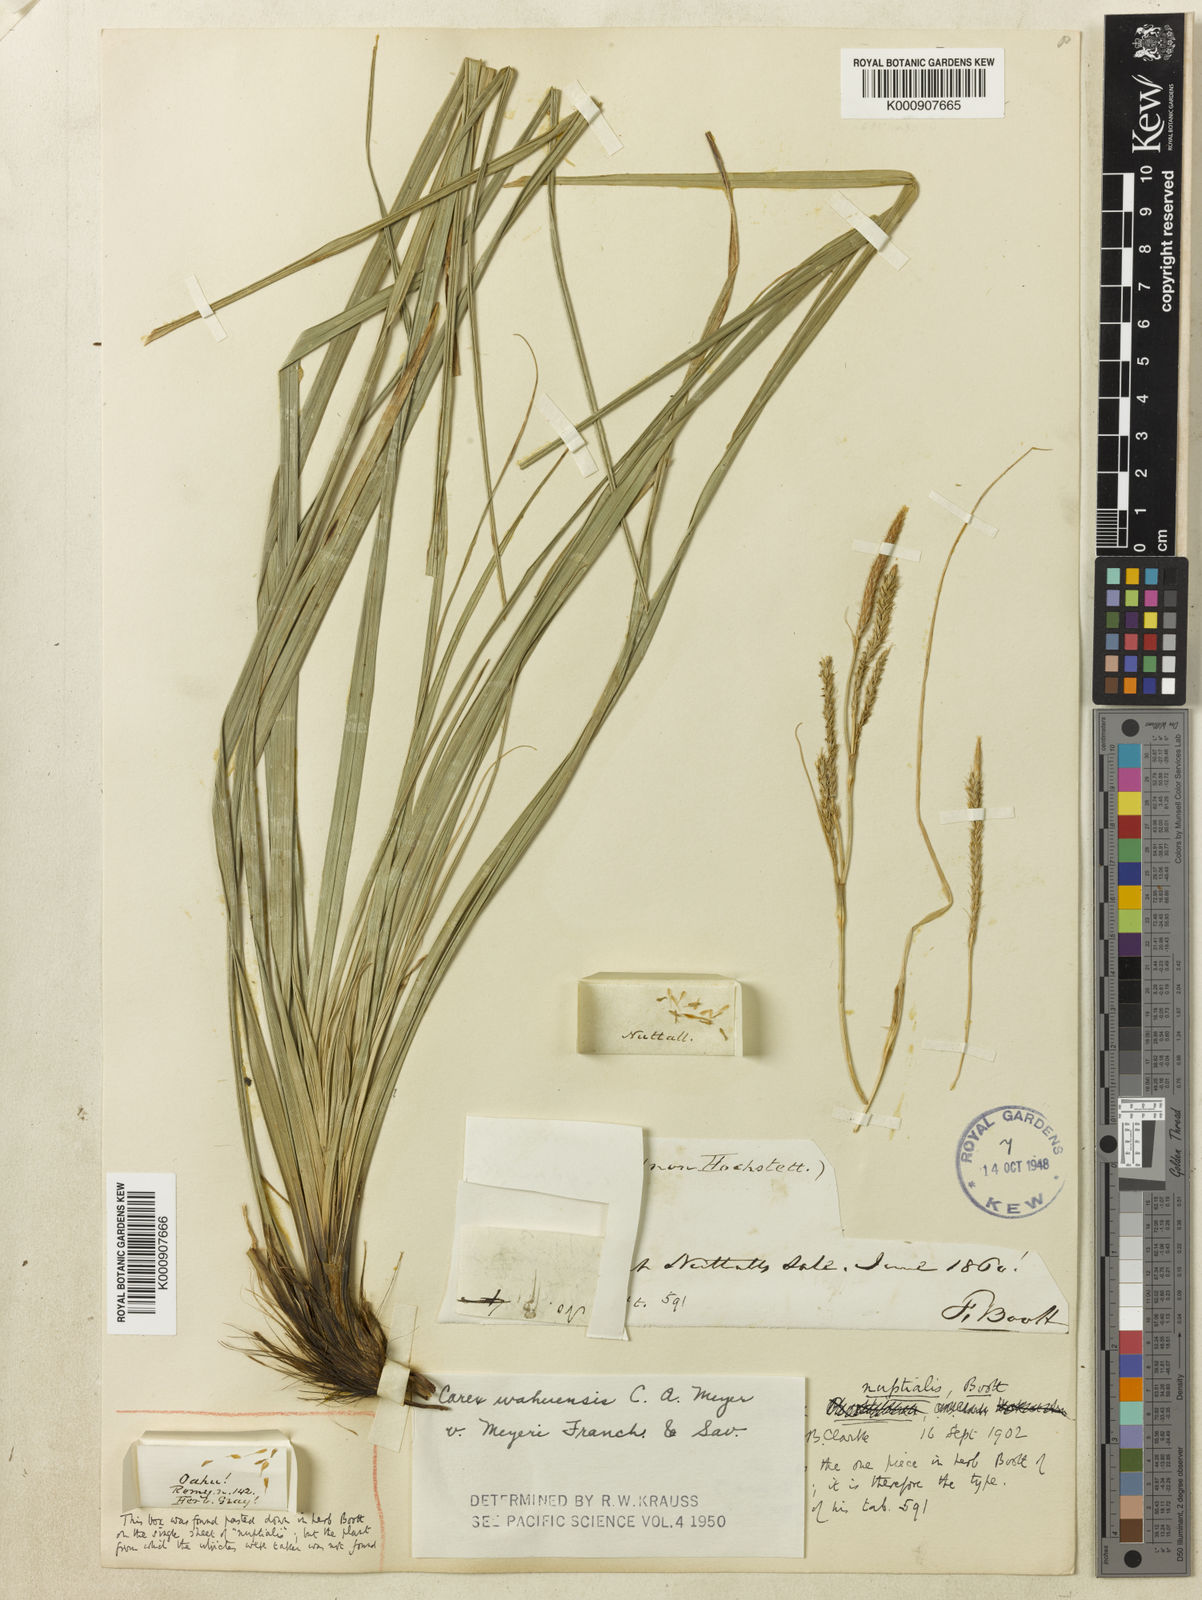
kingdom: Plantae
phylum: Tracheophyta
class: Liliopsida
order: Poales
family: Cyperaceae
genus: Carex
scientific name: Carex wahuensis
